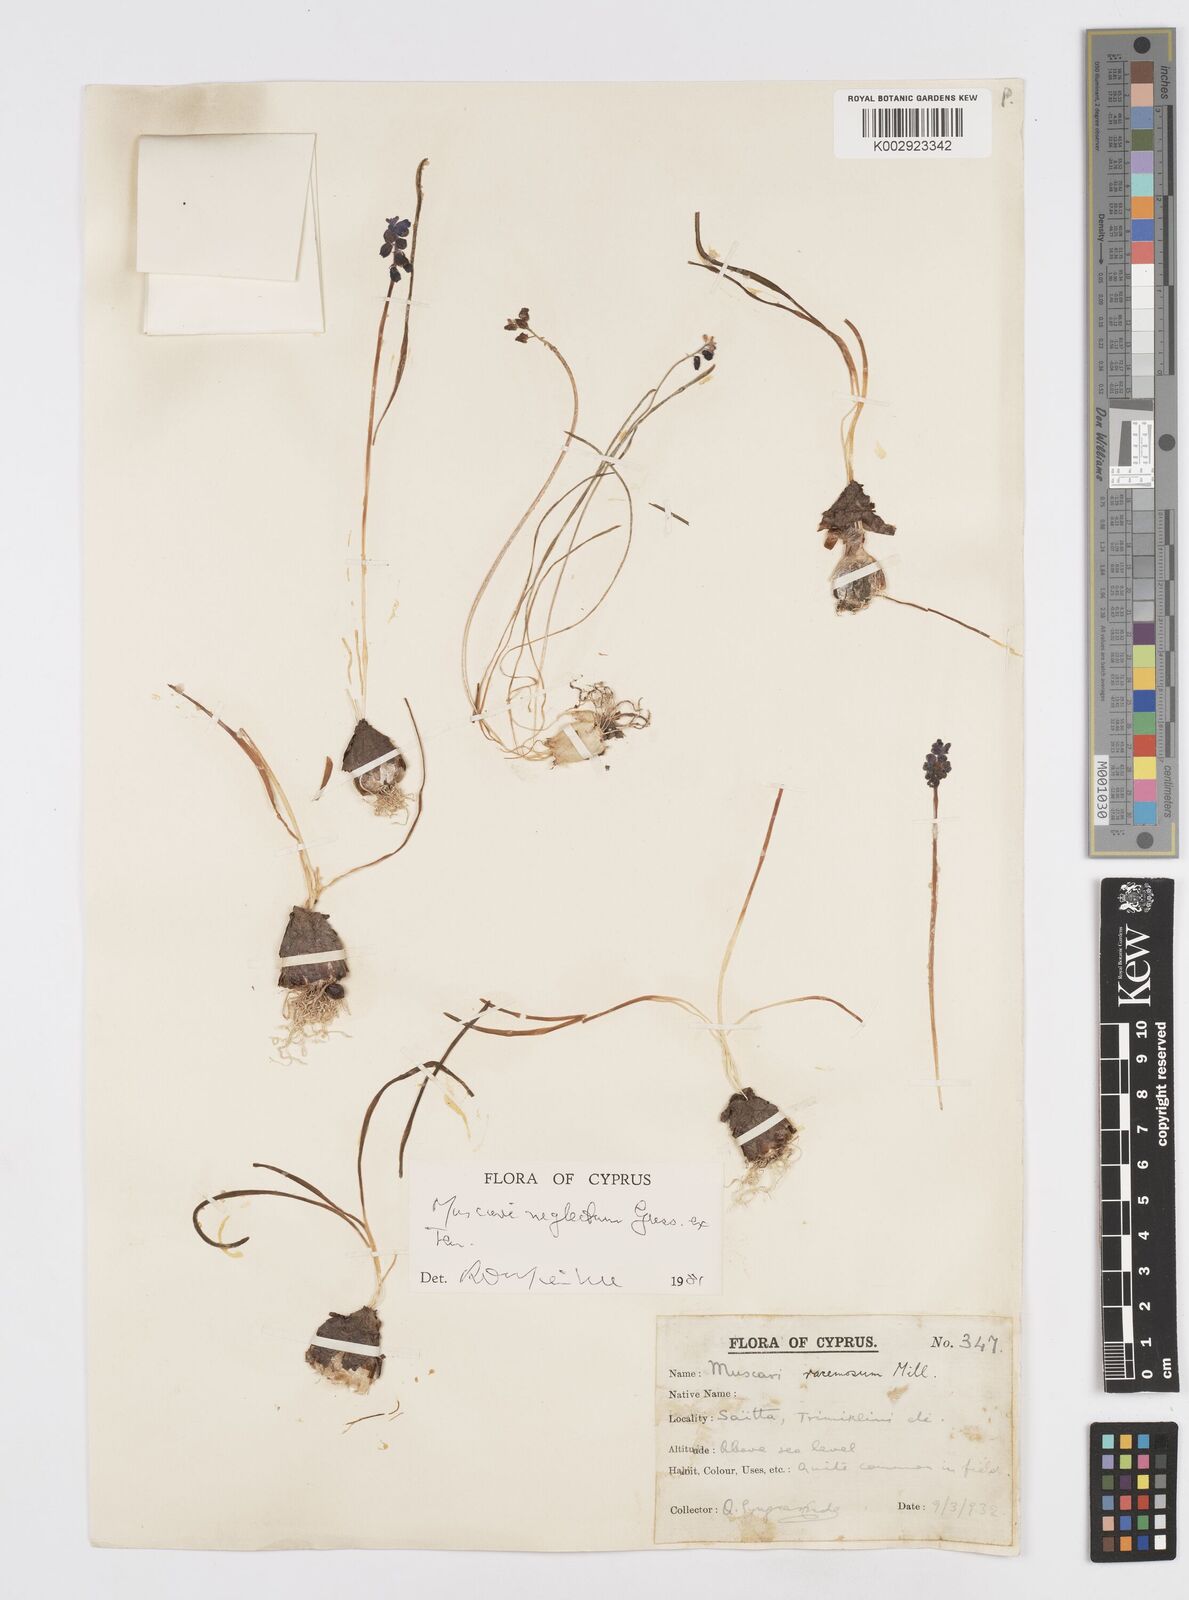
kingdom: Plantae
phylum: Tracheophyta
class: Liliopsida
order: Asparagales
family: Asparagaceae
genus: Muscari
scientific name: Muscari neglectum
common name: Grape-hyacinth
